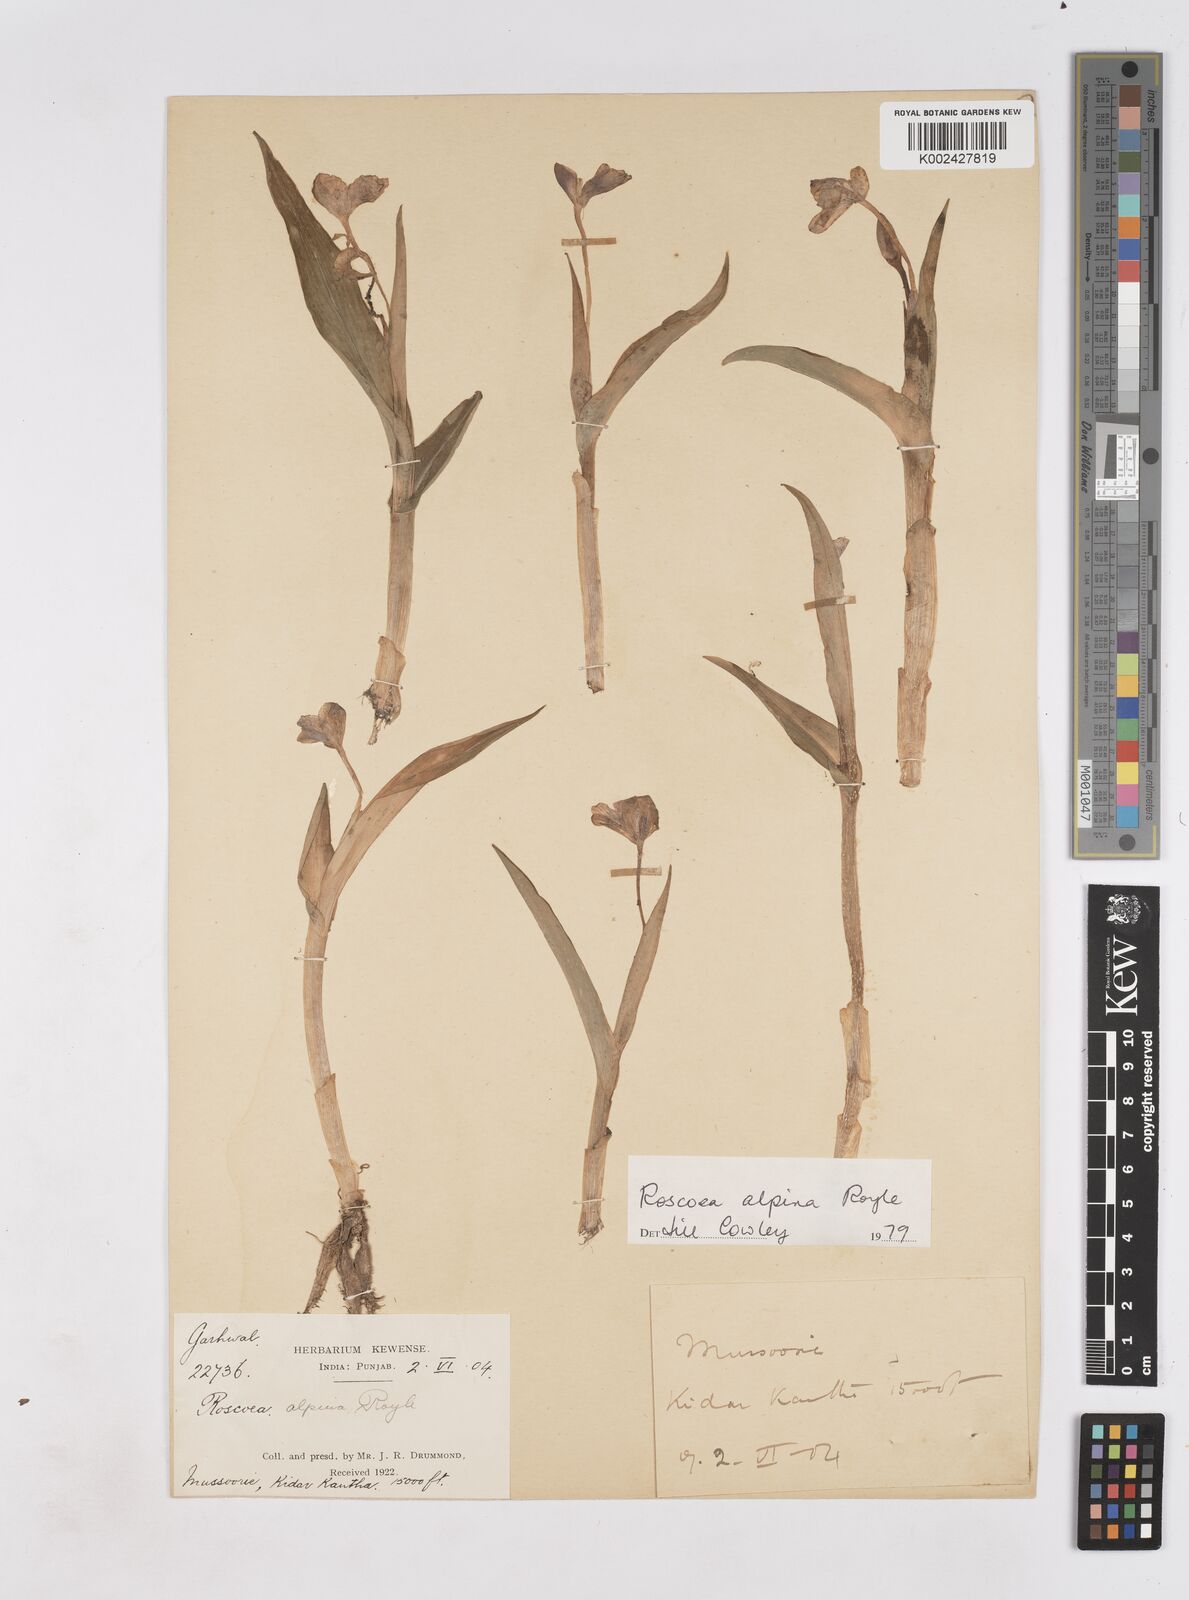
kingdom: Plantae
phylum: Tracheophyta
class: Liliopsida
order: Zingiberales
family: Zingiberaceae
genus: Roscoea
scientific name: Roscoea alpina
